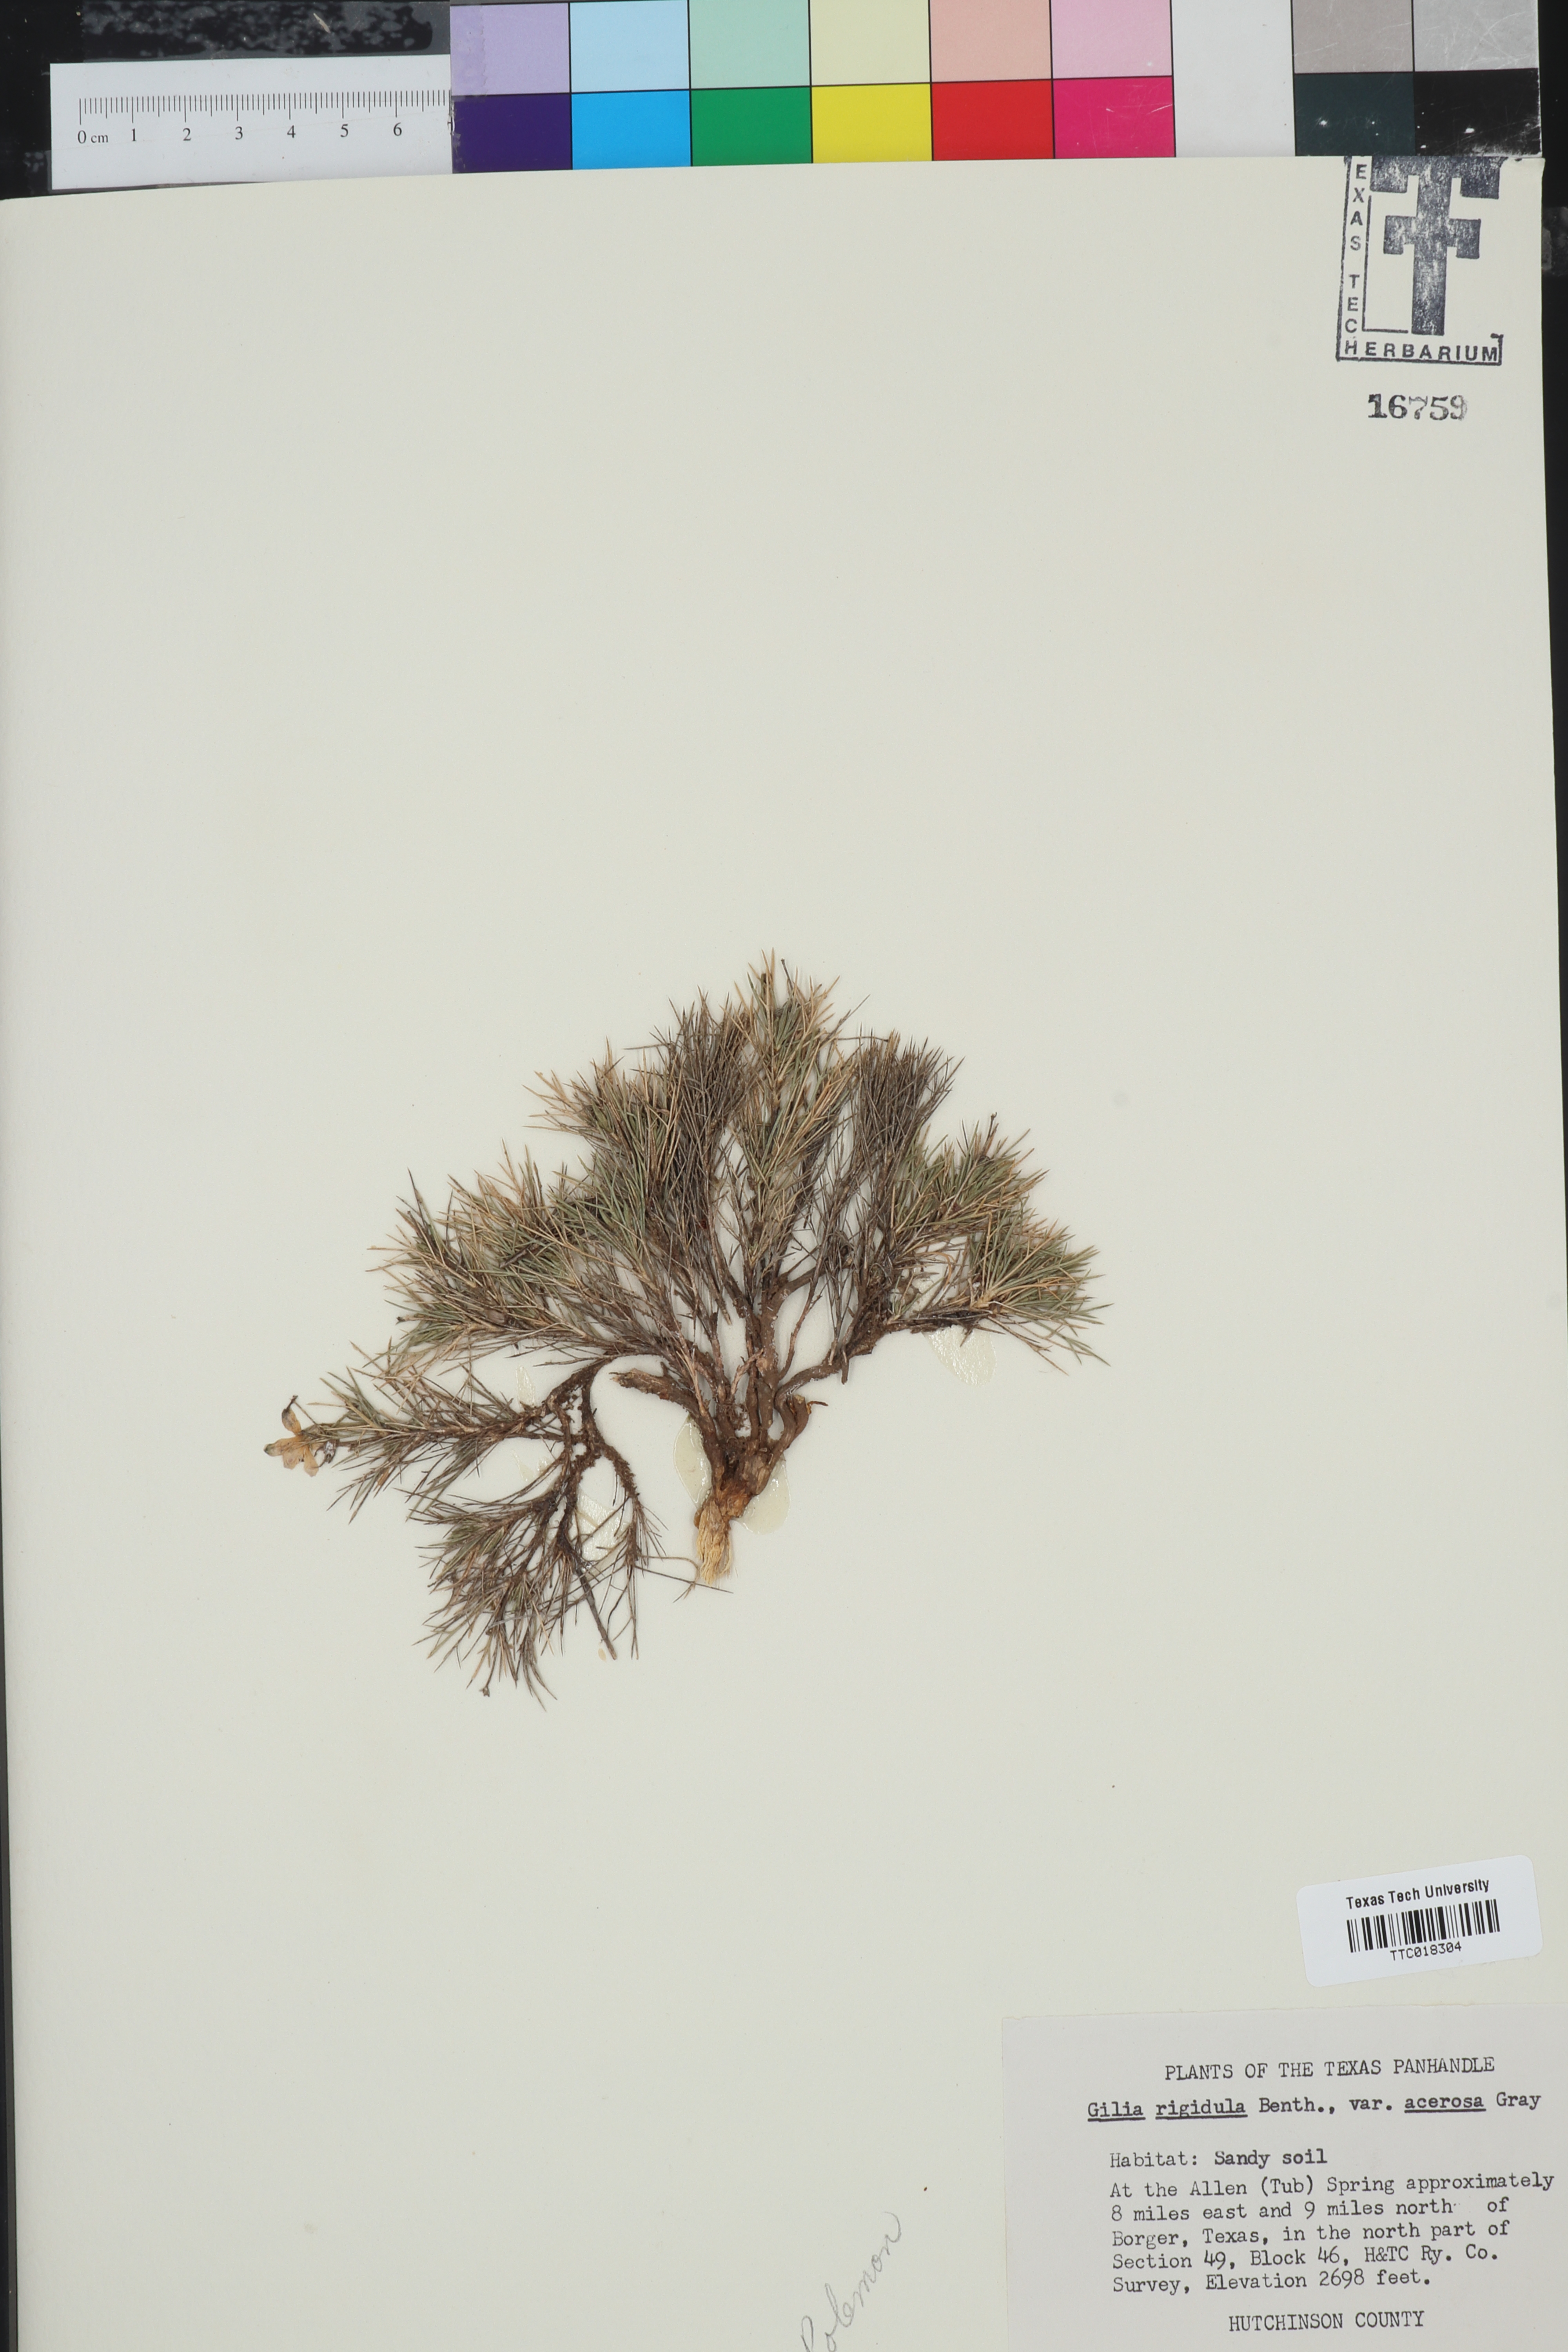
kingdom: Plantae
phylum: Tracheophyta
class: Magnoliopsida
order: Ericales
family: Polemoniaceae
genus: Giliastrum
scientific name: Giliastrum acerosum
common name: Bluebowls
